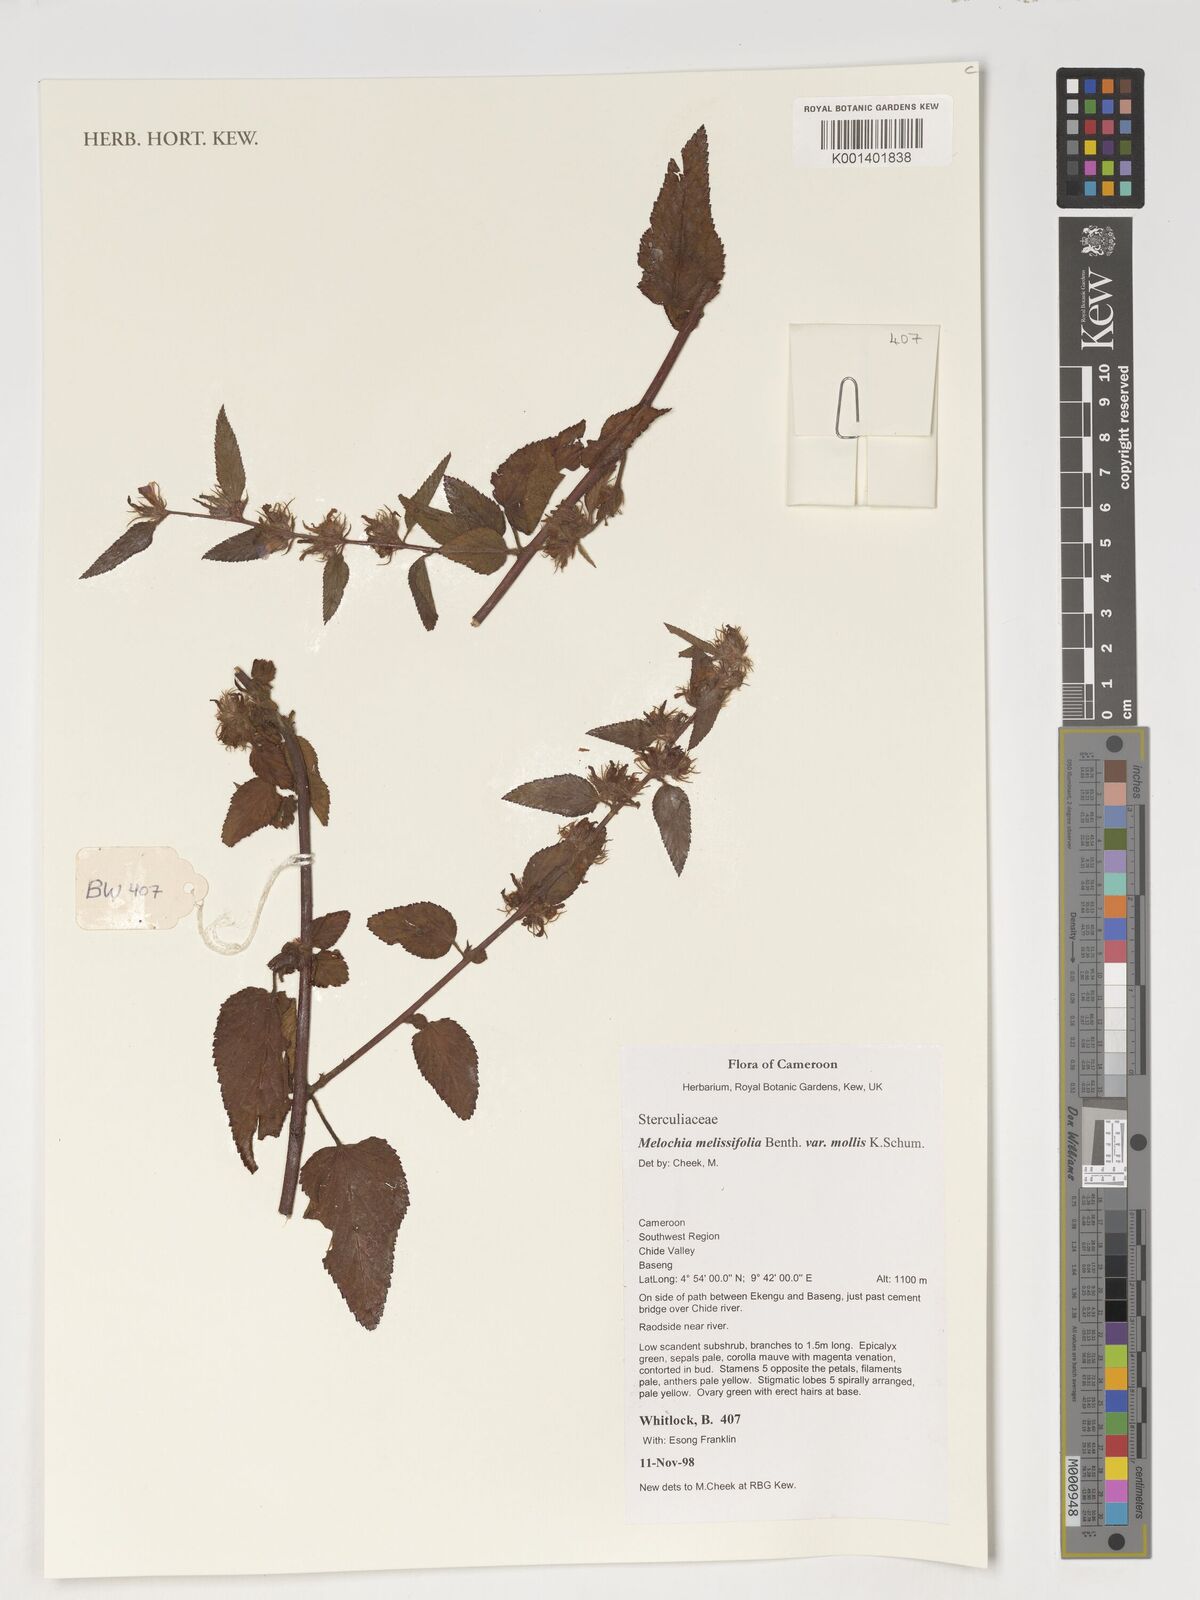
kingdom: Plantae
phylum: Tracheophyta
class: Magnoliopsida
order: Malvales
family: Malvaceae
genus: Melochia
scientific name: Melochia melissifolia
